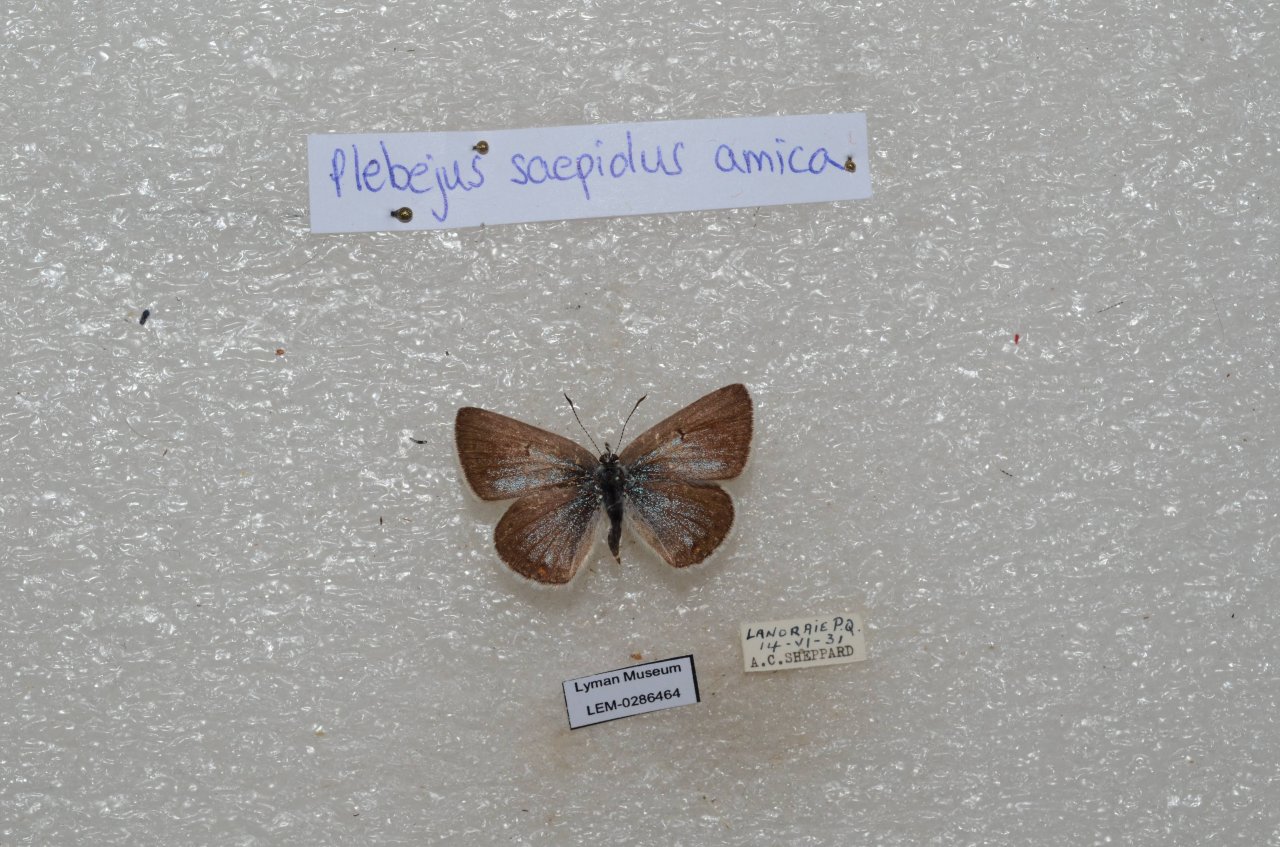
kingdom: Animalia
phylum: Arthropoda
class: Insecta
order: Lepidoptera
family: Lycaenidae
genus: Plebejus
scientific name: Plebejus saepiolus
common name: Greenish Blue
